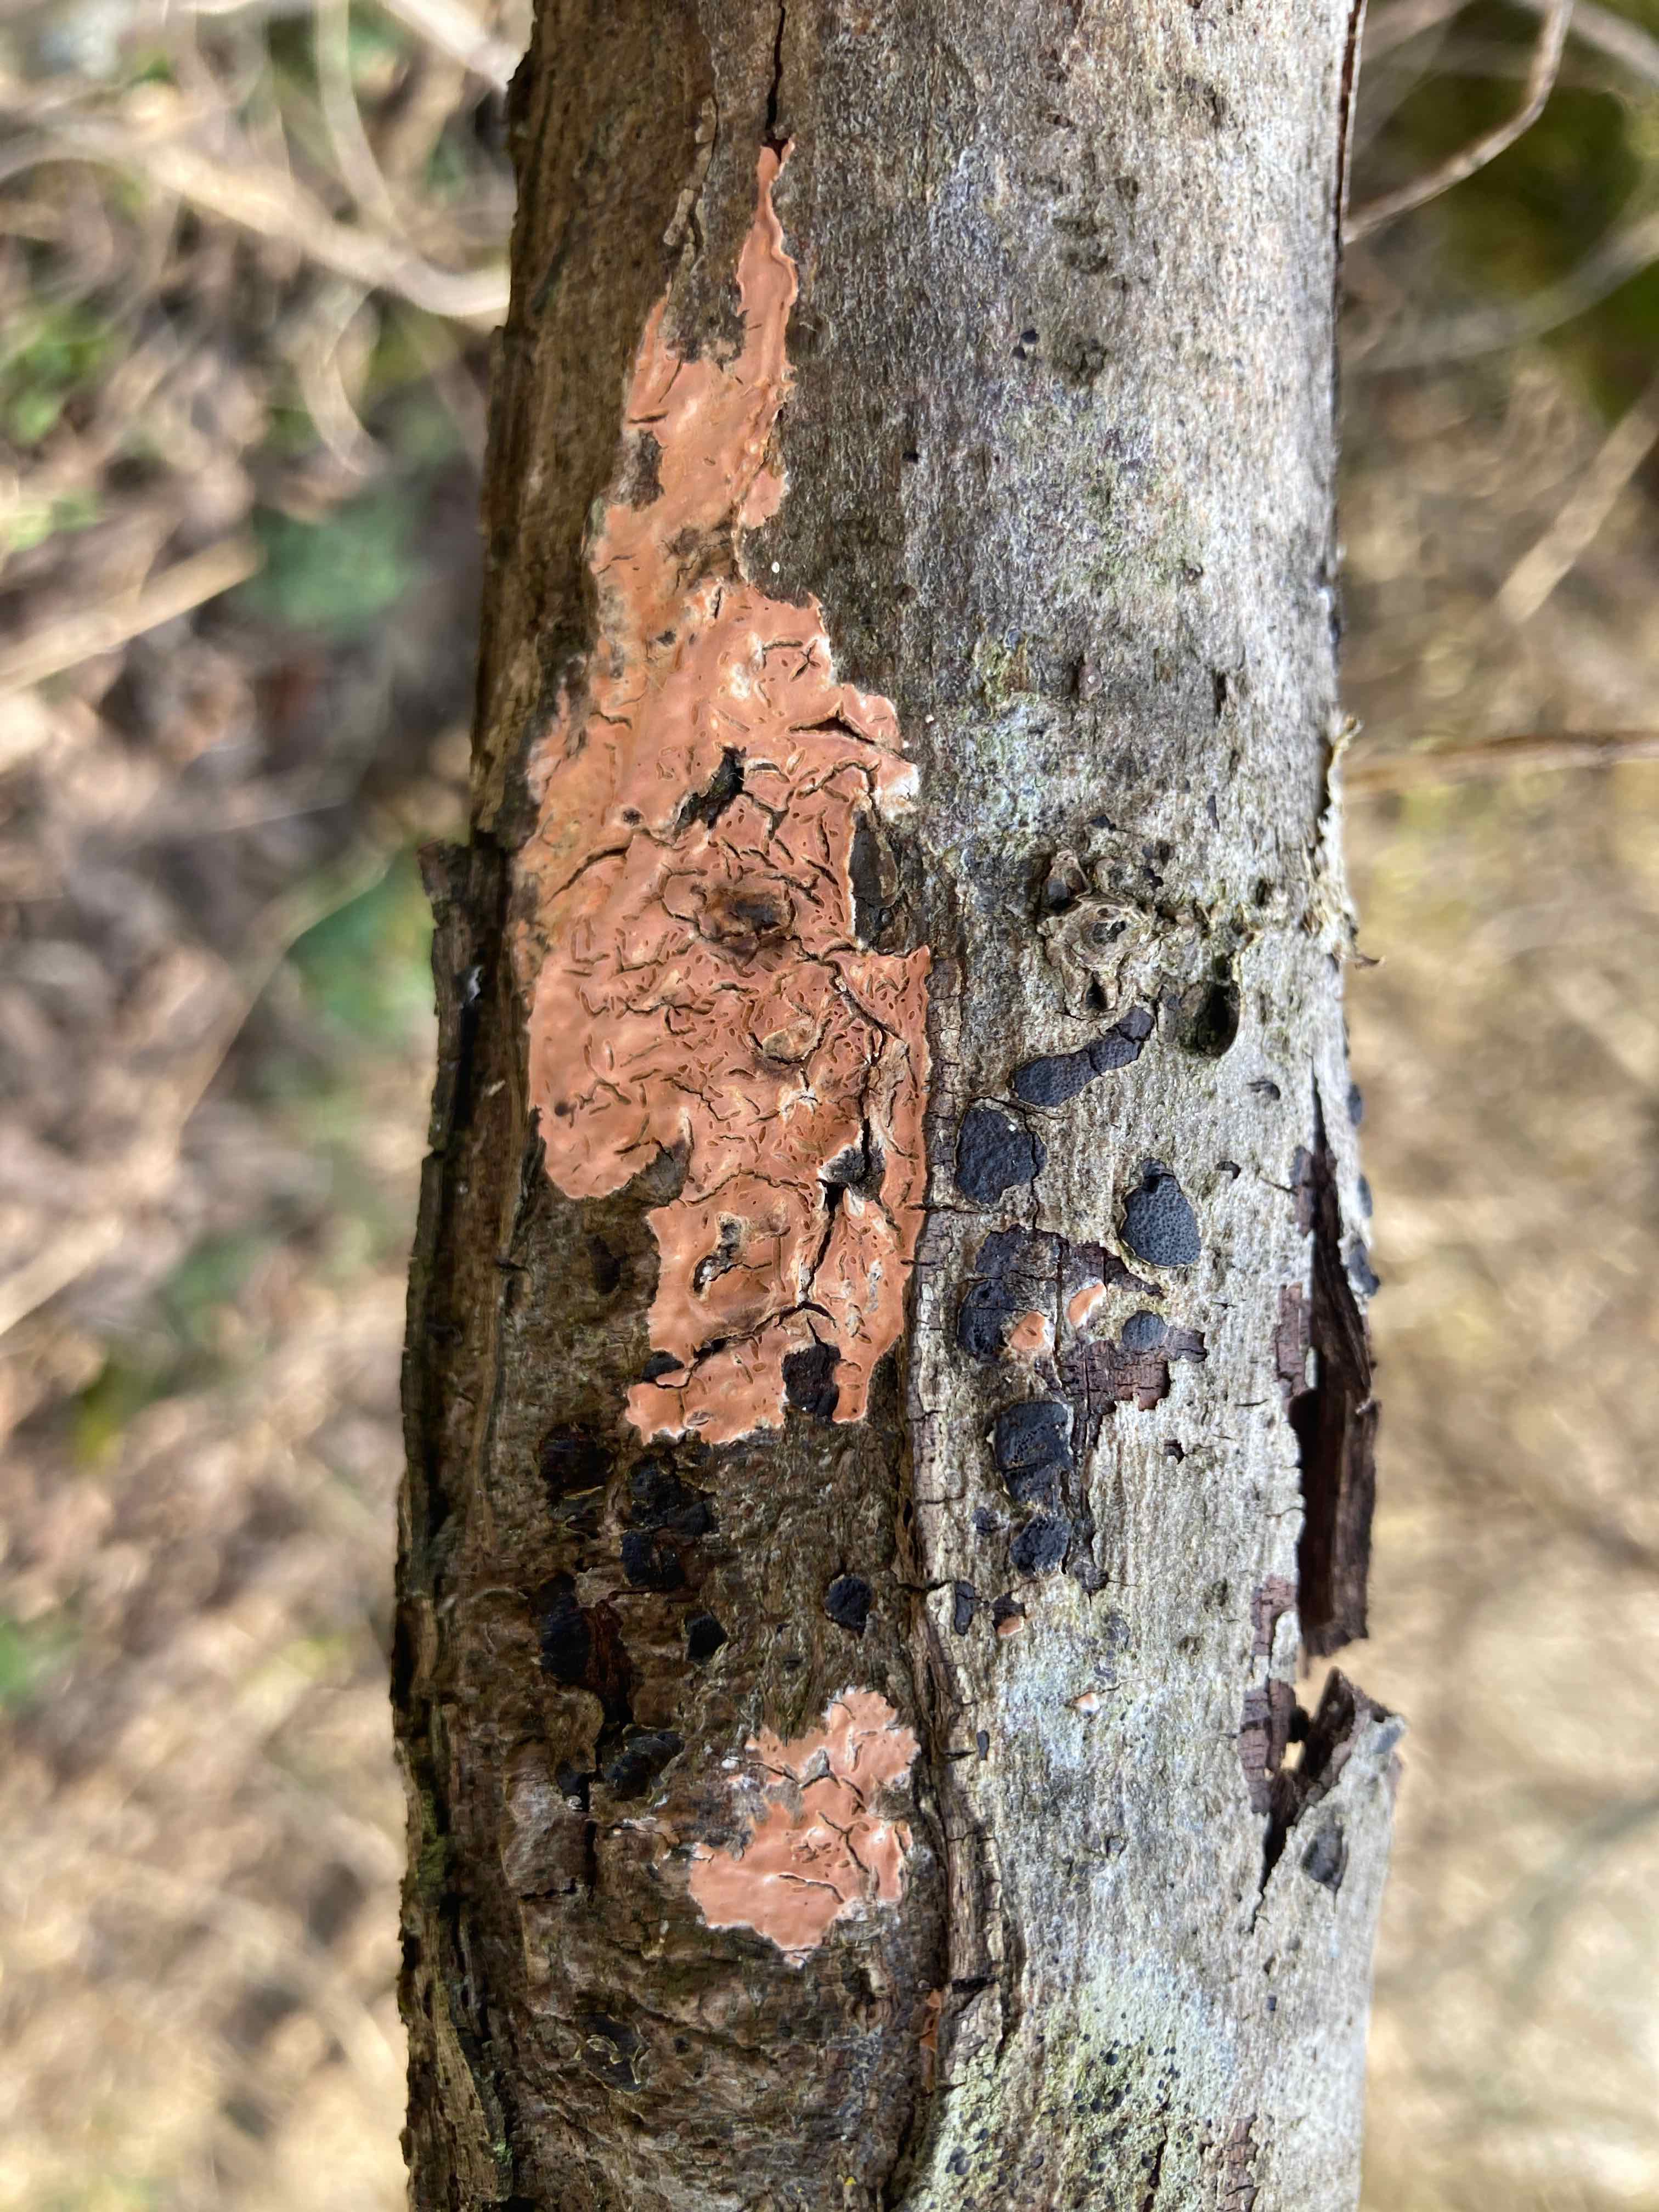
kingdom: Fungi
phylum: Basidiomycota
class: Agaricomycetes
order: Russulales
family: Peniophoraceae
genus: Peniophora
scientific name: Peniophora incarnata
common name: laksefarvet voksskind
